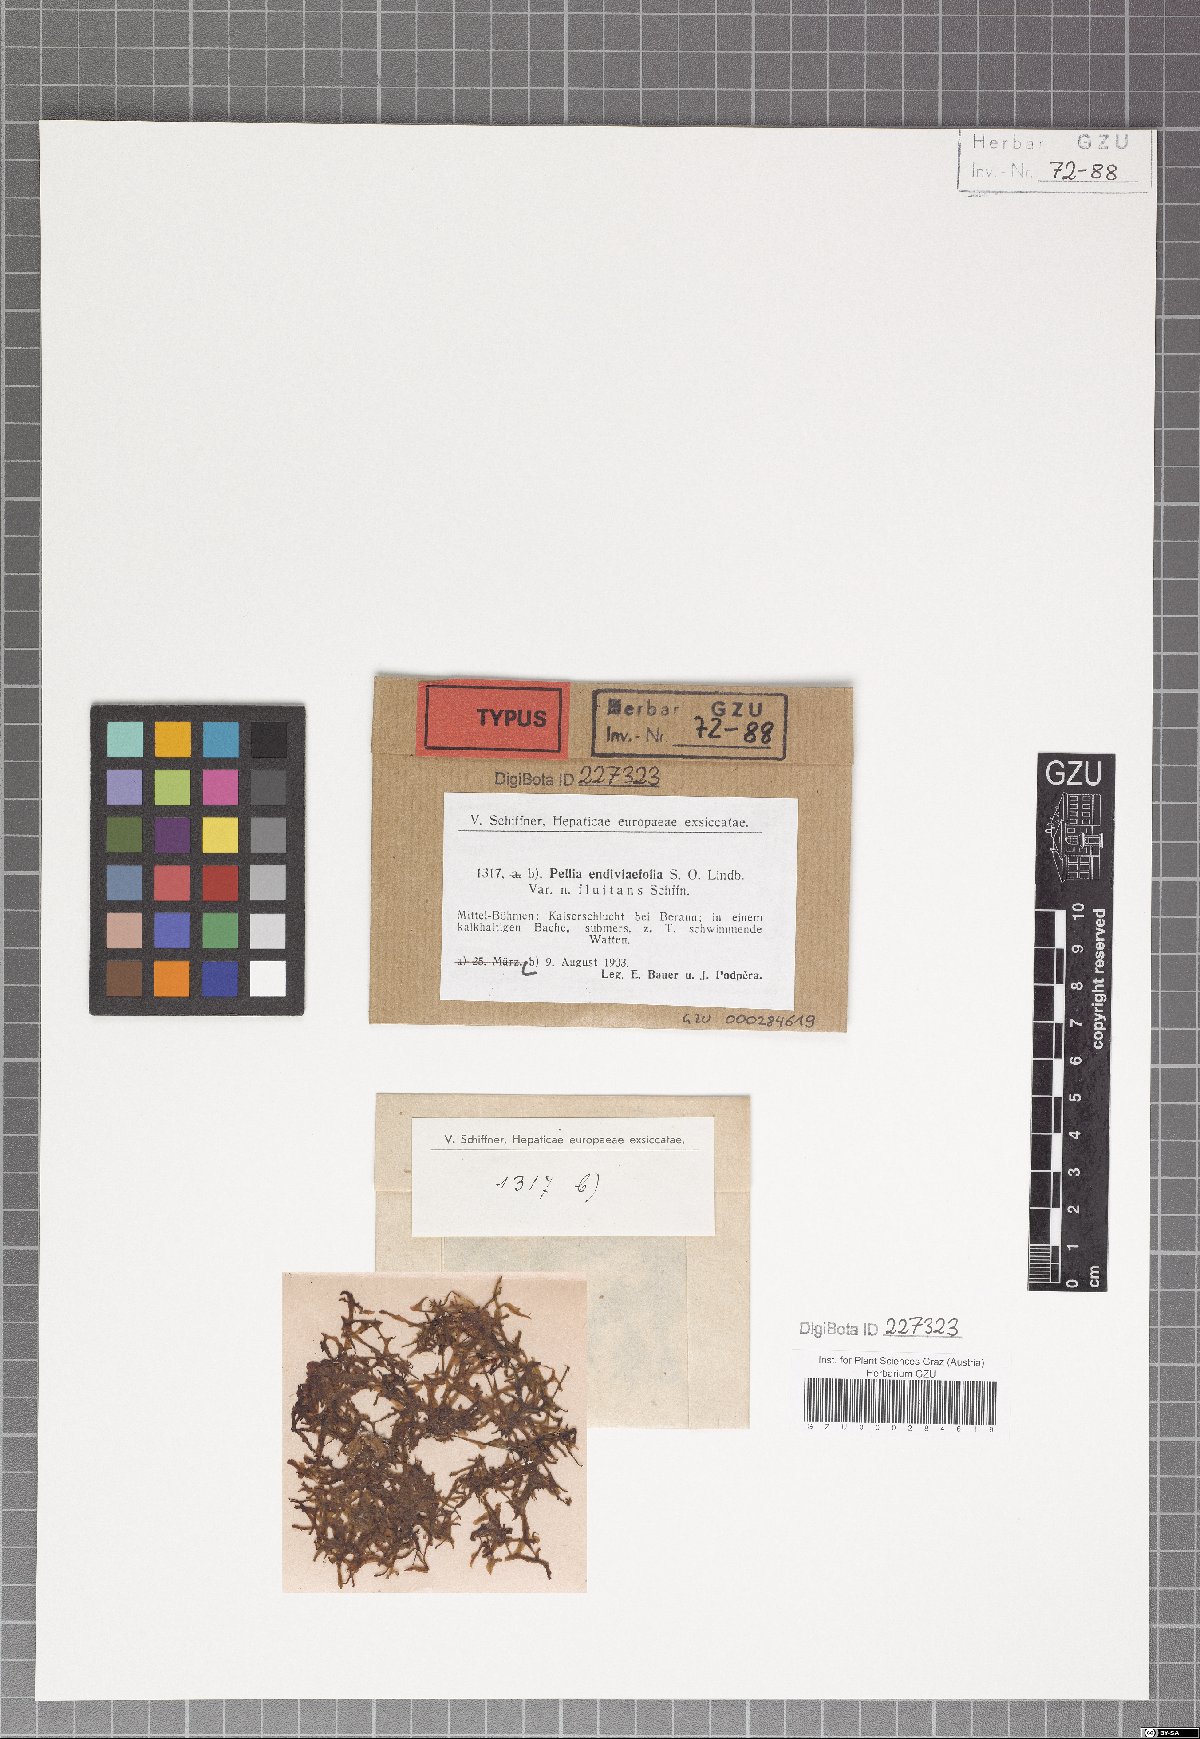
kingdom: Plantae
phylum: Marchantiophyta
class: Jungermanniopsida
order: Pelliales
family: Pelliaceae
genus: Apopellia
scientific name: Apopellia endiviifolia
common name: Endive pellia
